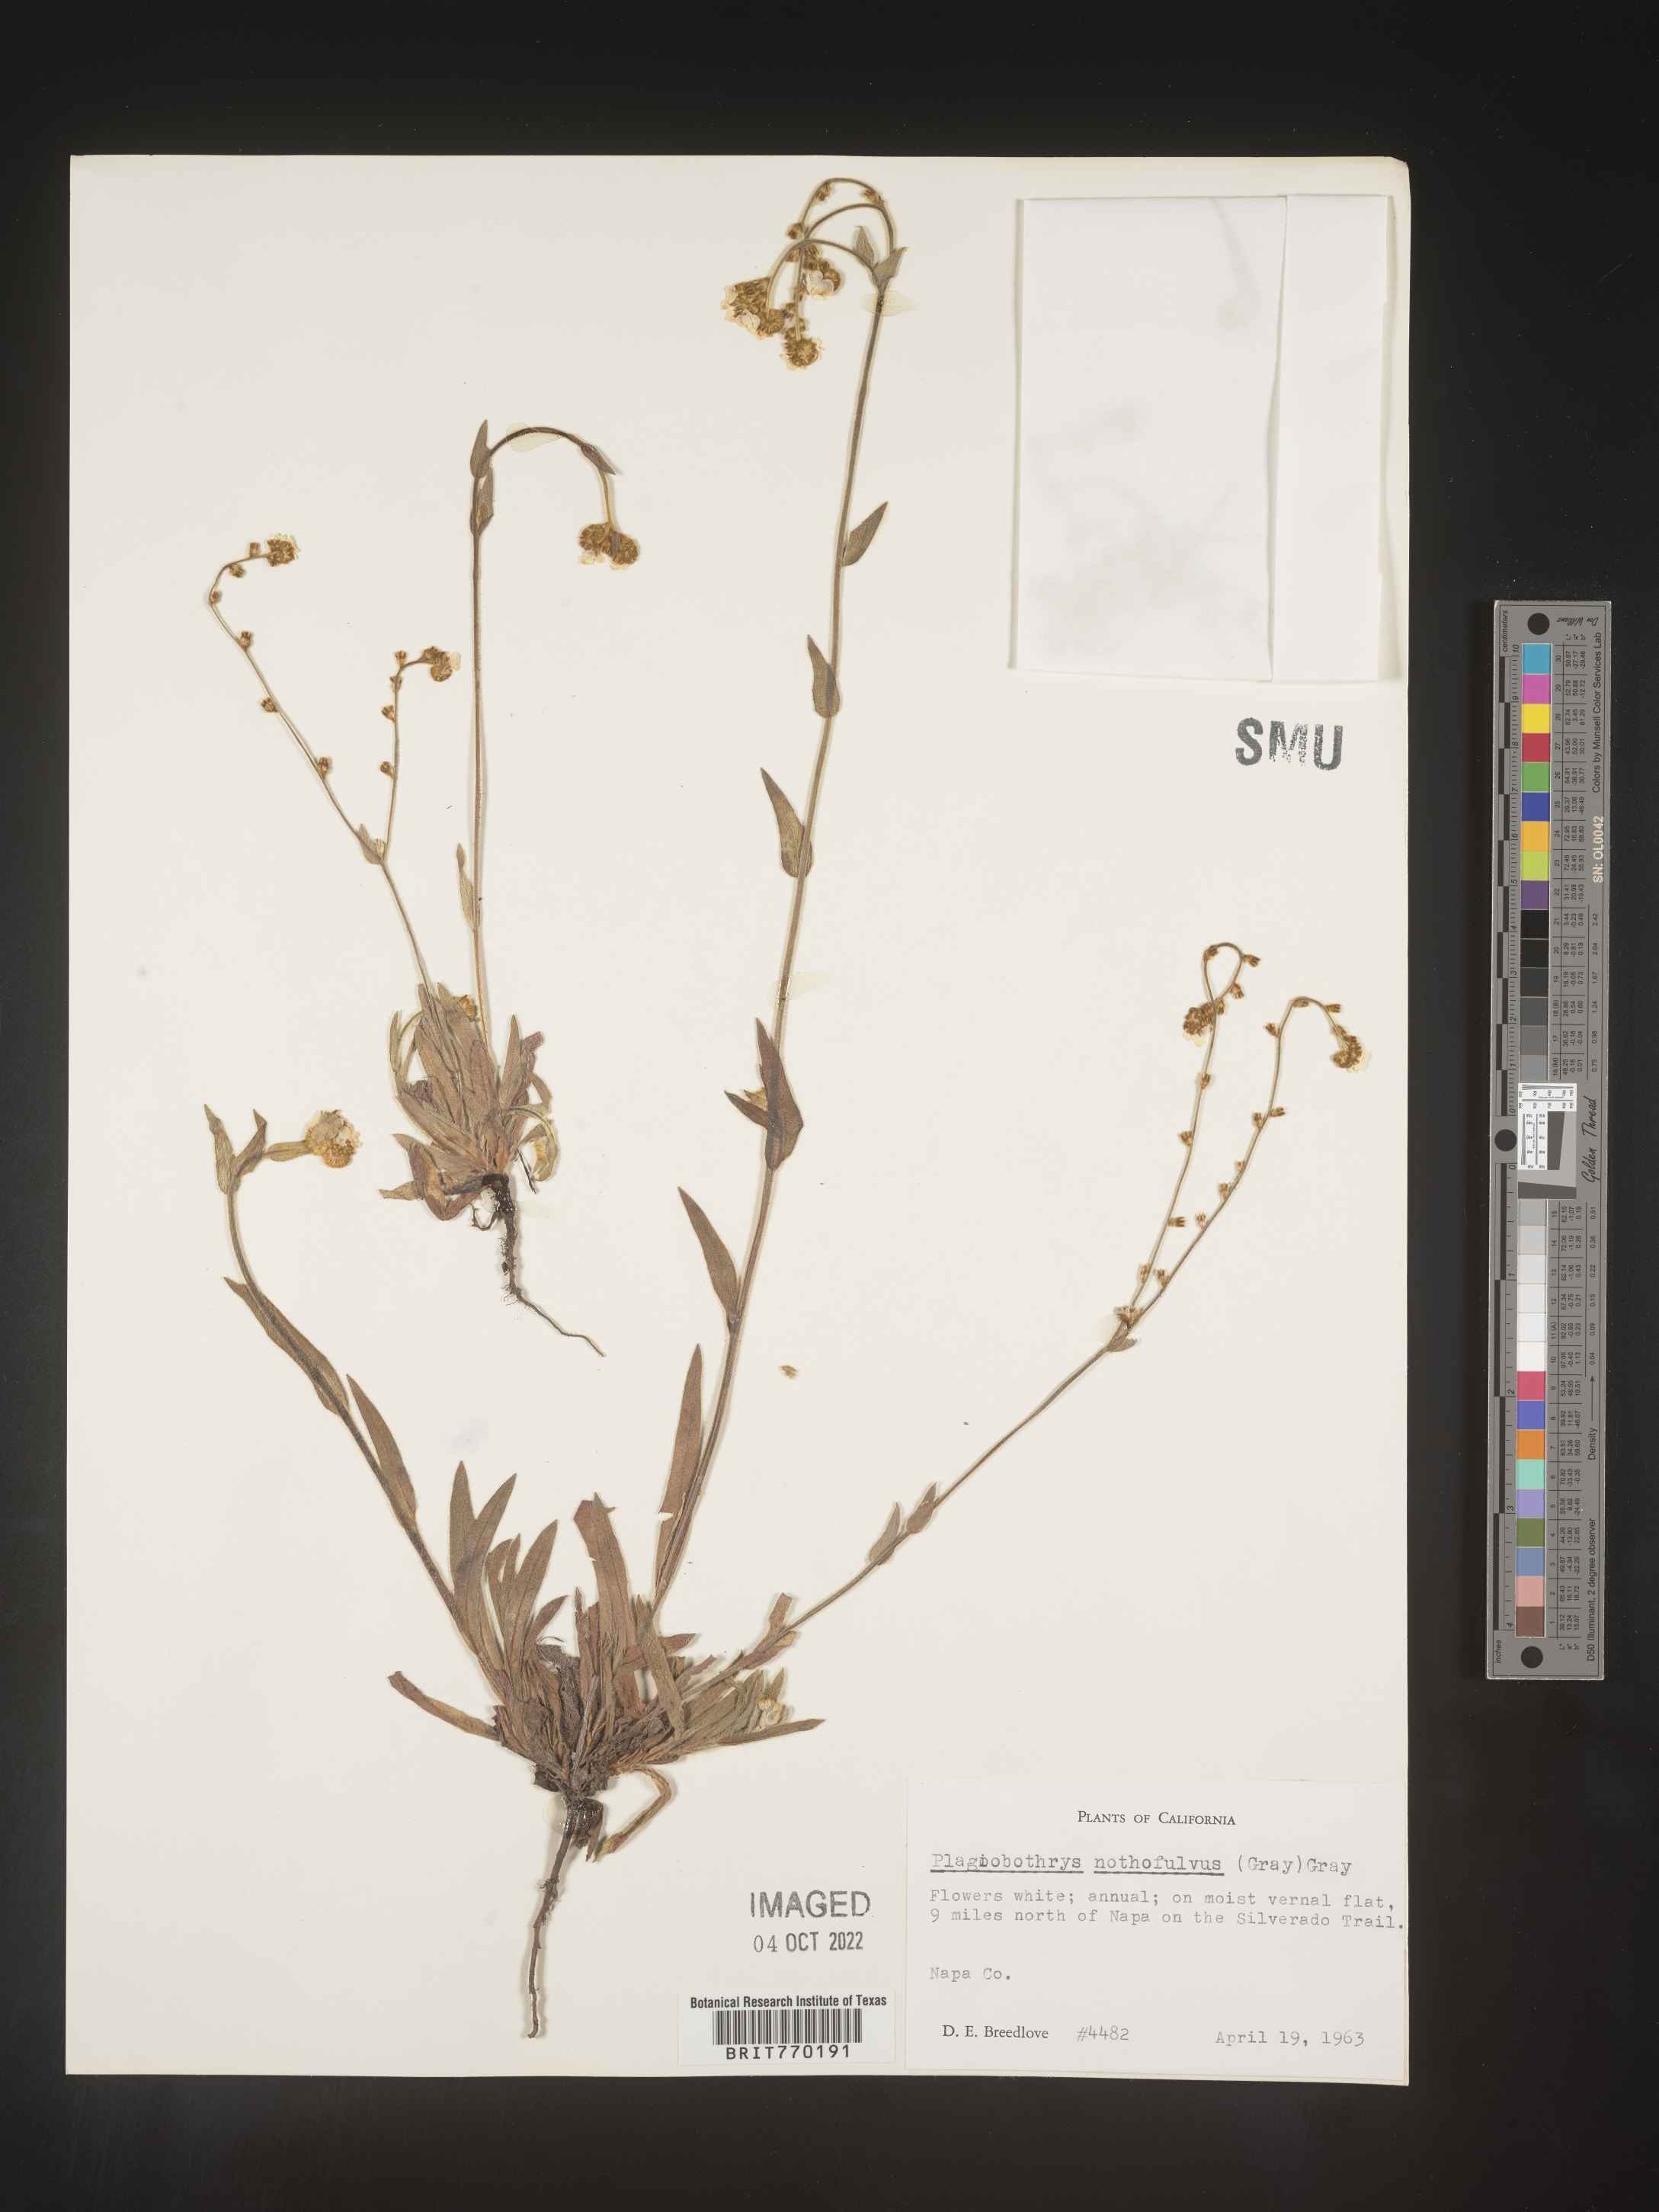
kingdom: Plantae
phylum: Tracheophyta
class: Magnoliopsida
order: Boraginales
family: Boraginaceae
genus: Plagiobothrys
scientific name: Plagiobothrys
